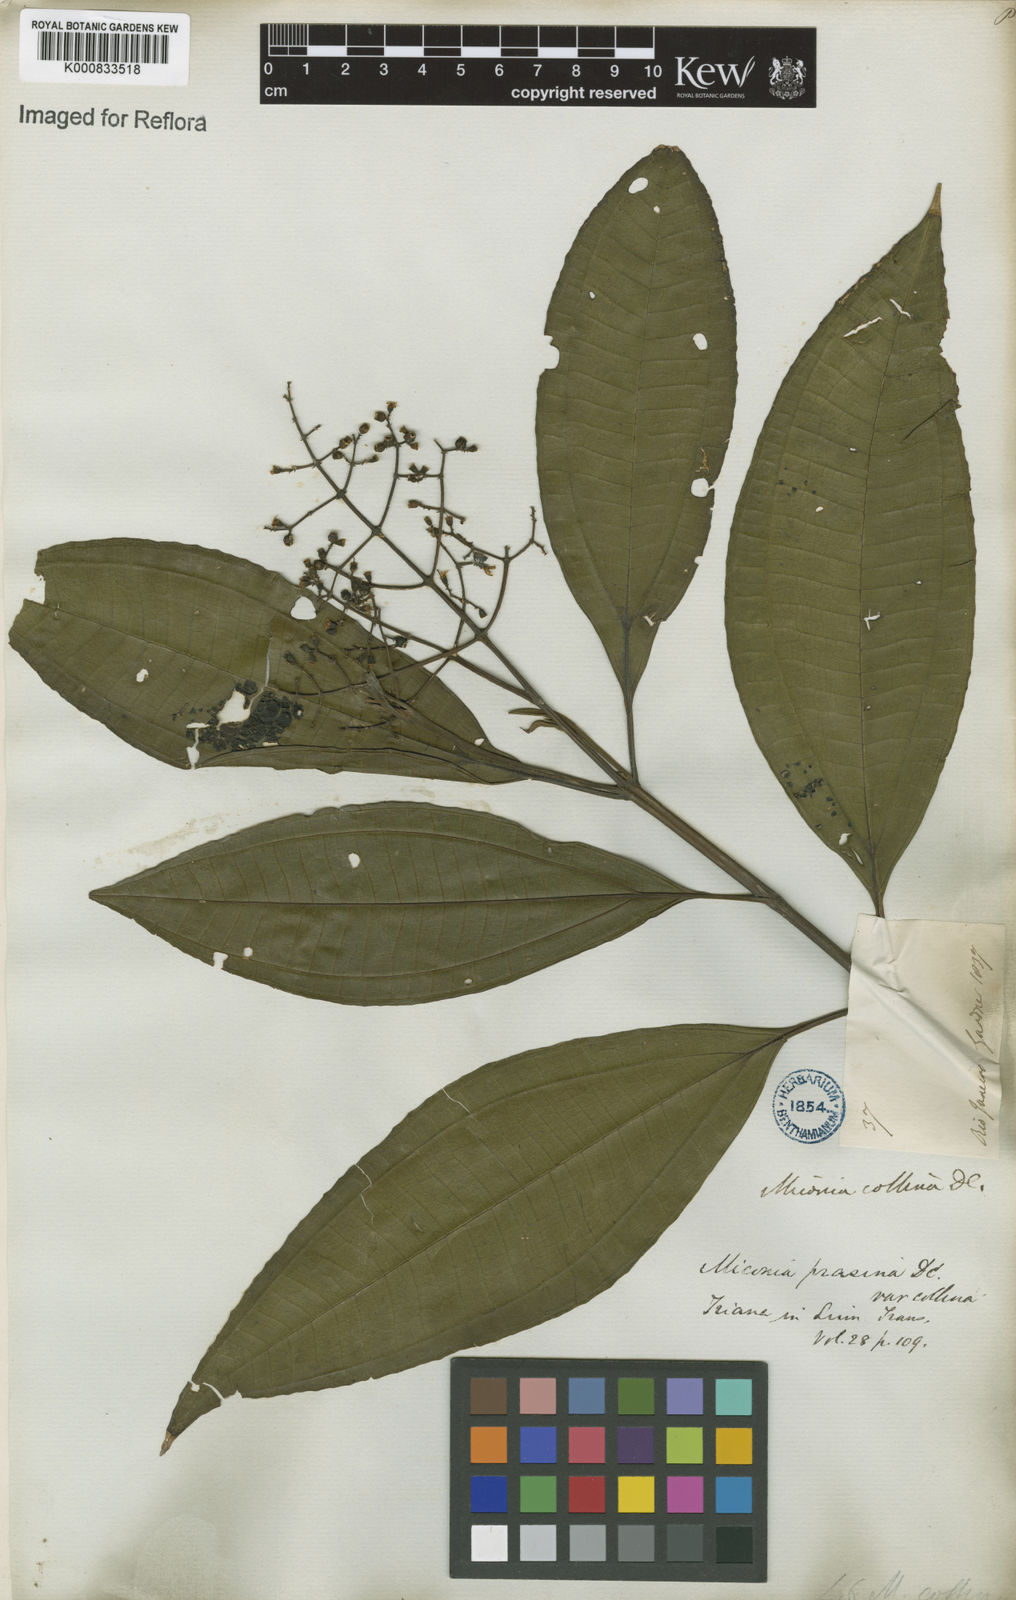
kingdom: Plantae
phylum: Tracheophyta
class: Magnoliopsida
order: Myrtales
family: Melastomataceae
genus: Miconia
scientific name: Miconia prasina
